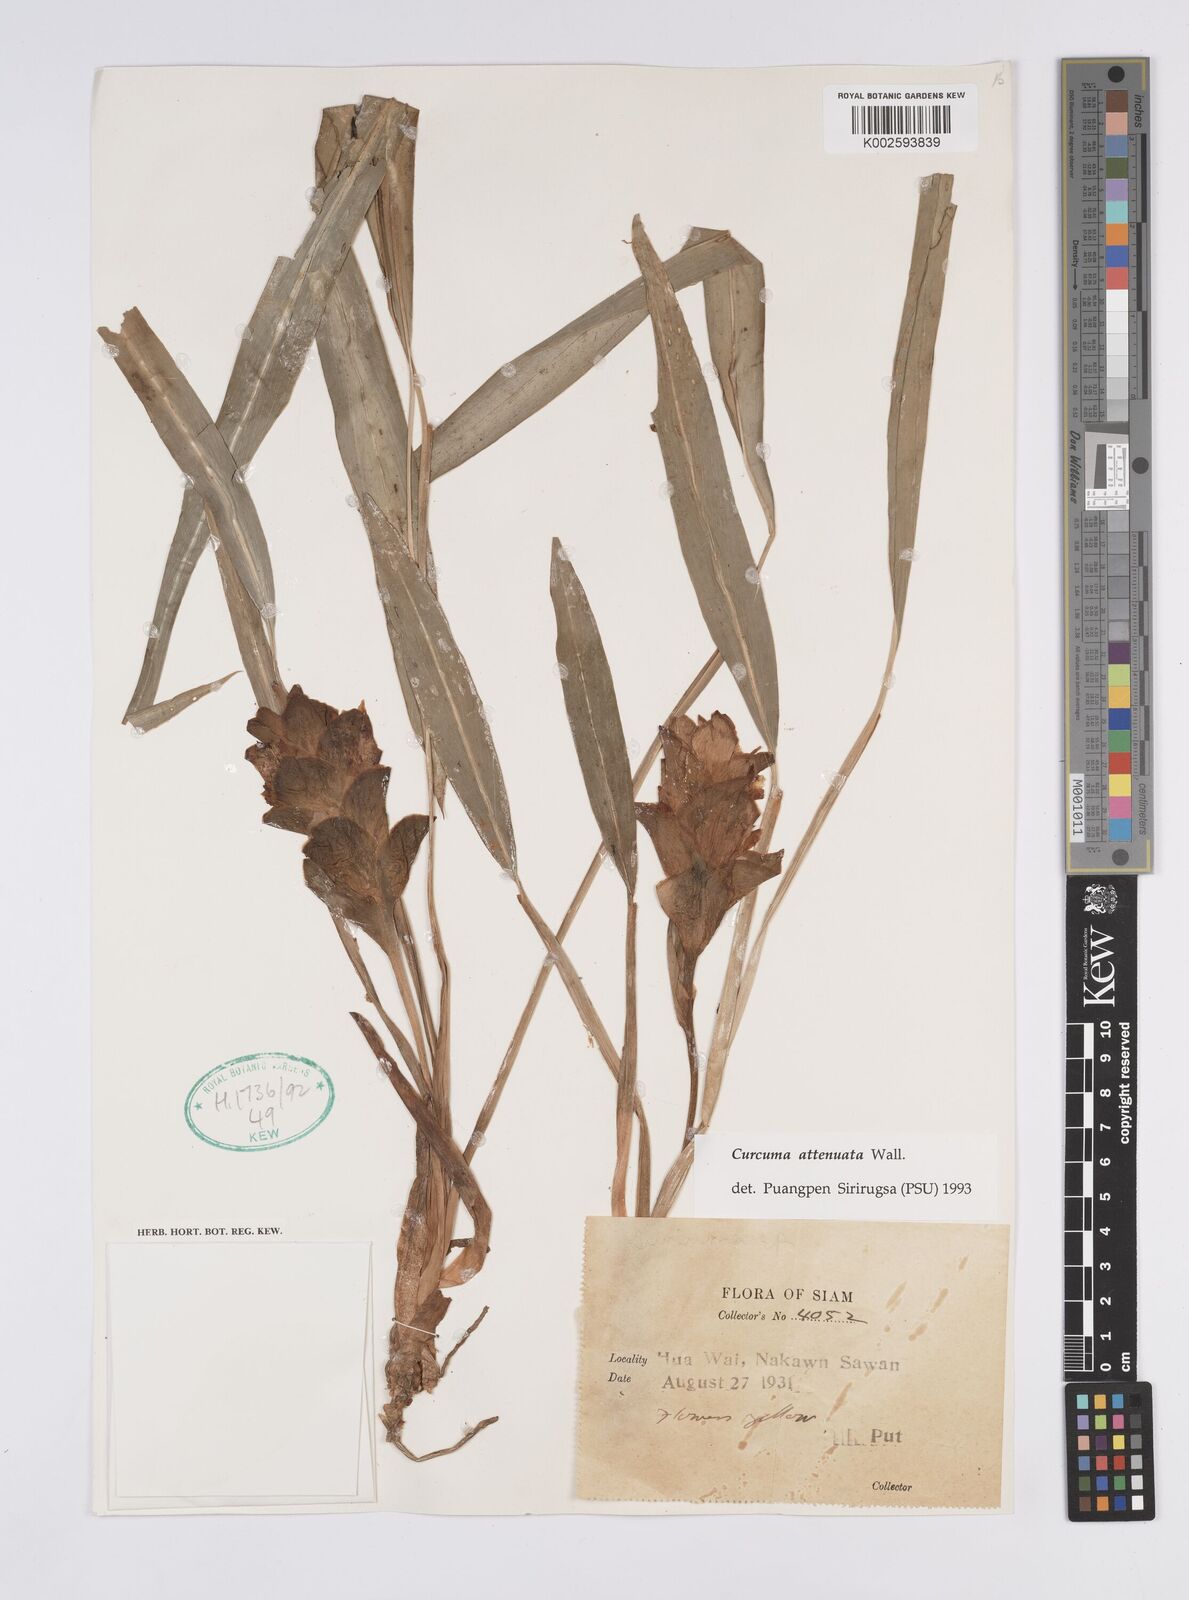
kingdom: Plantae
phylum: Tracheophyta
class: Liliopsida
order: Zingiberales
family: Zingiberaceae
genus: Curcuma
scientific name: Curcuma attenuata
